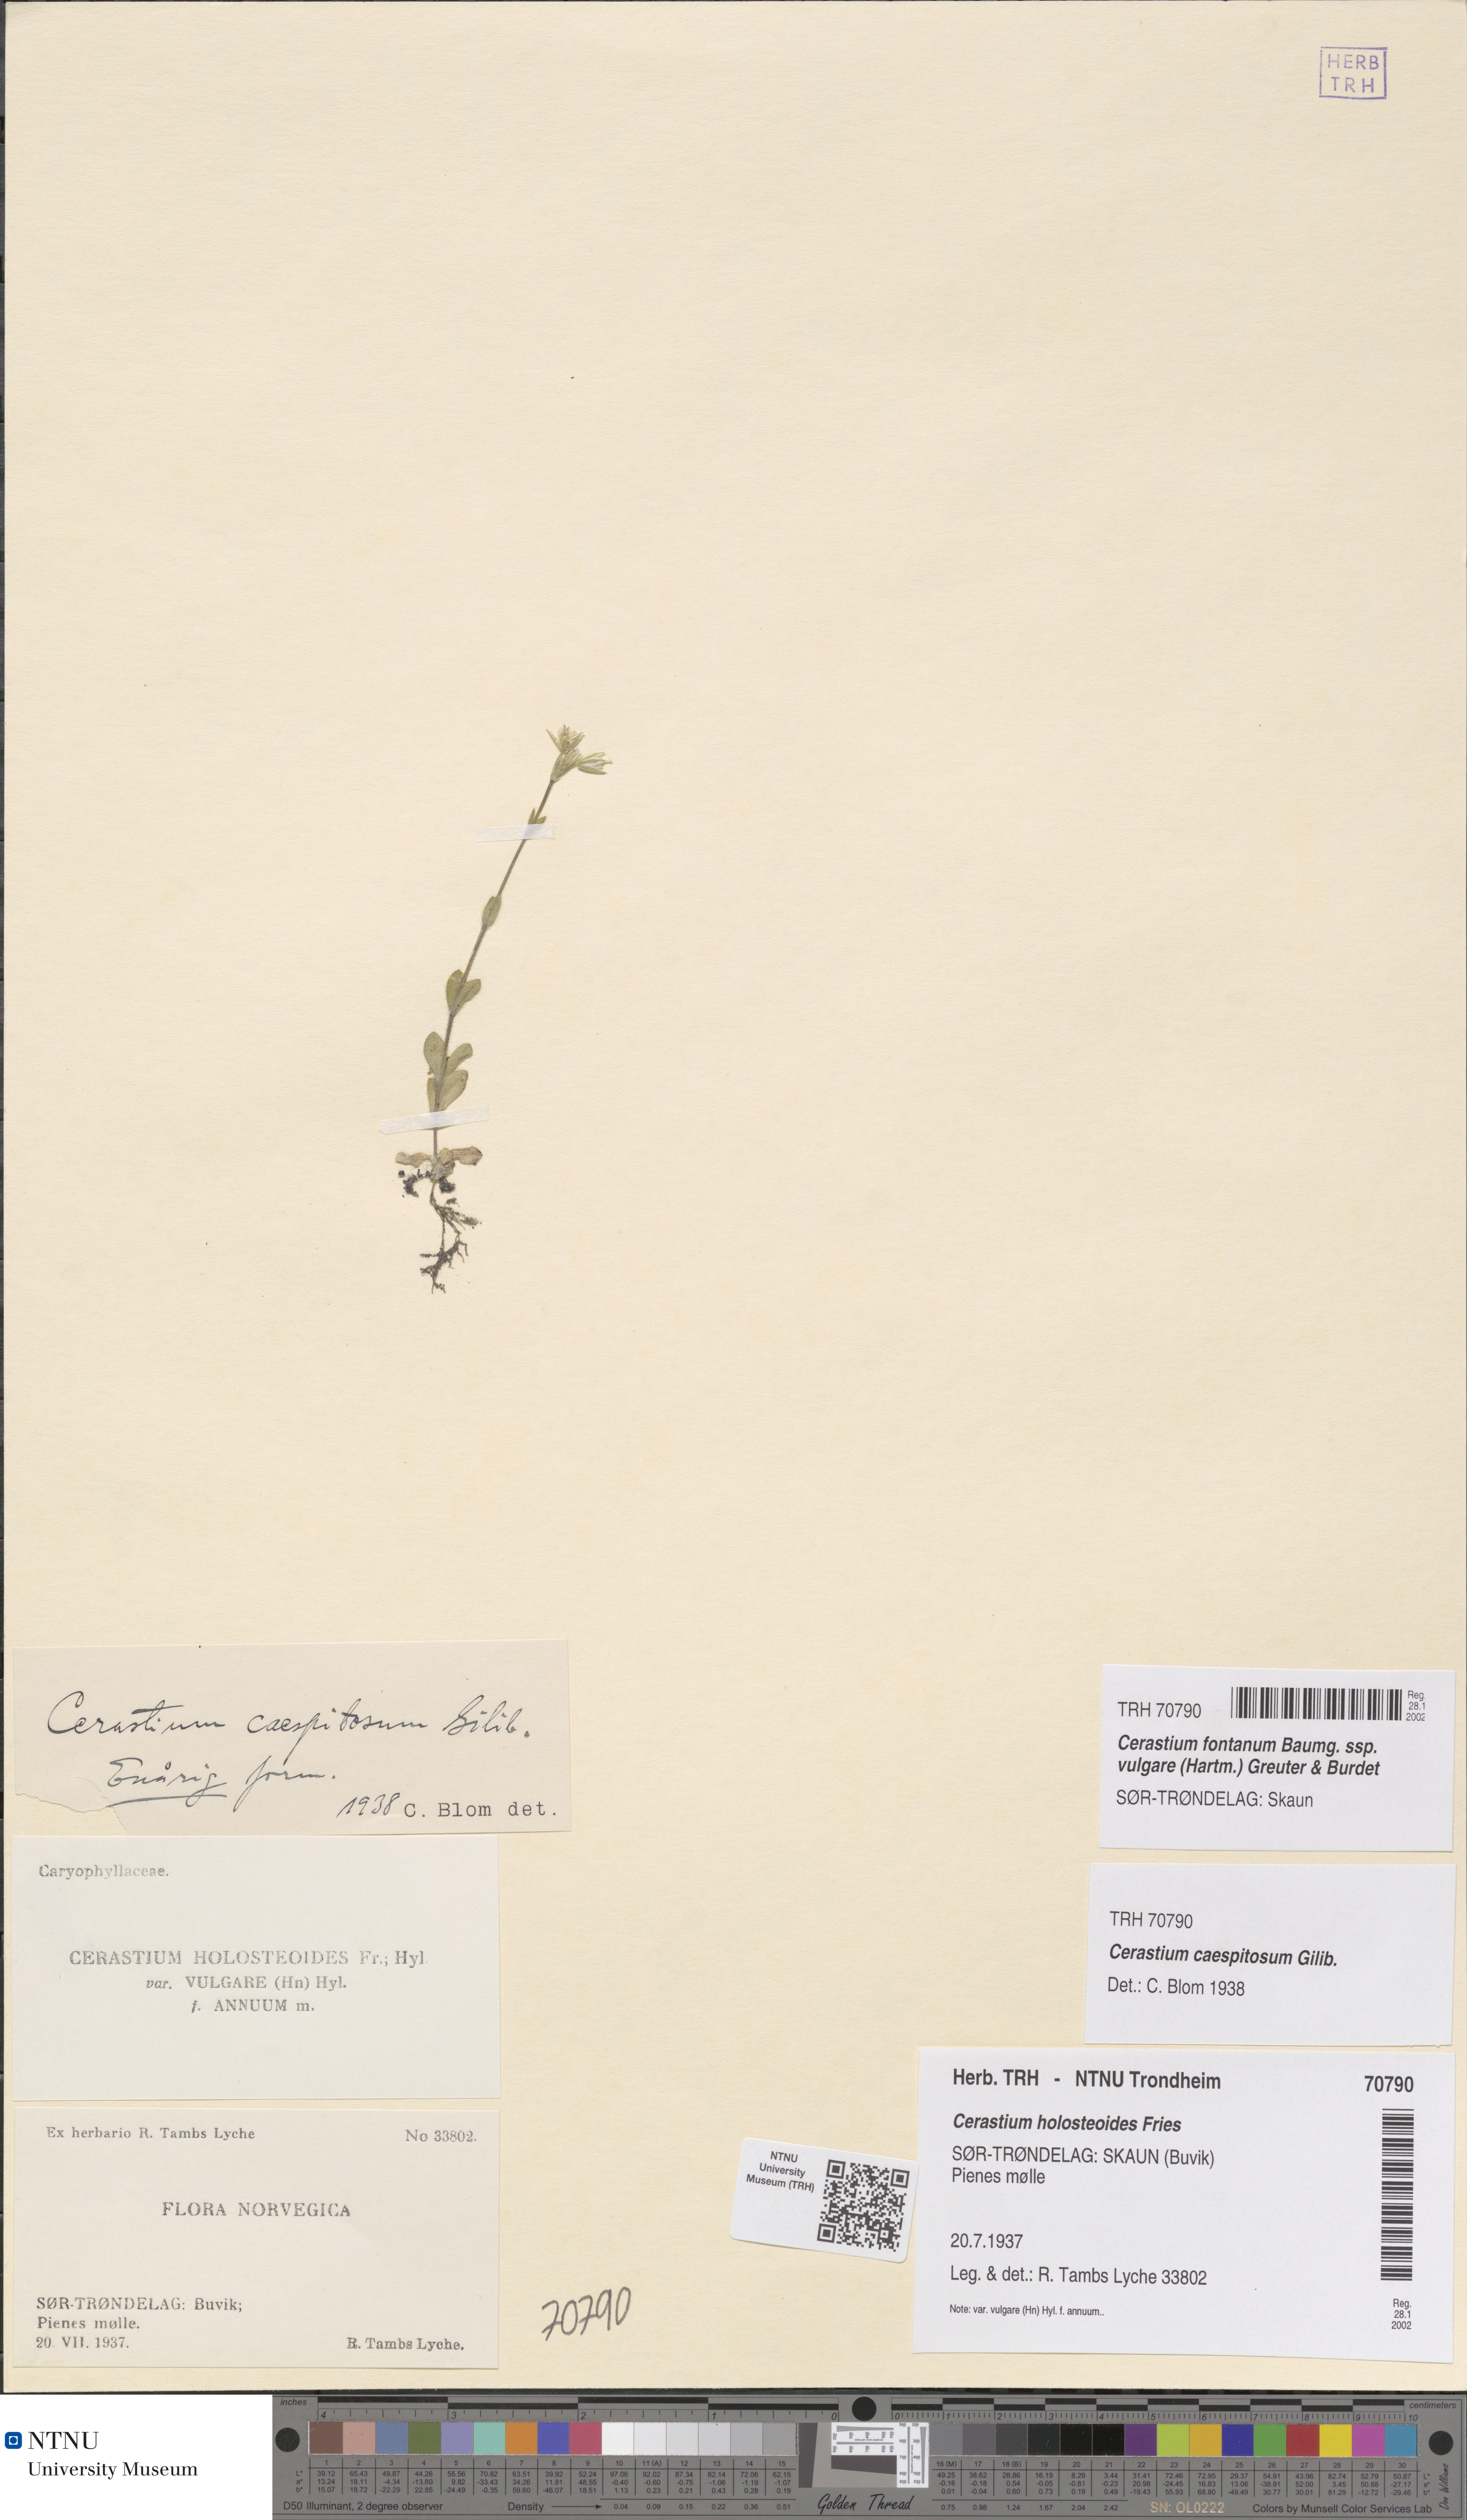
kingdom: Plantae
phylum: Tracheophyta
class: Magnoliopsida
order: Caryophyllales
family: Caryophyllaceae
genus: Cerastium
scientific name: Cerastium holosteoides
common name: Big chickweed
